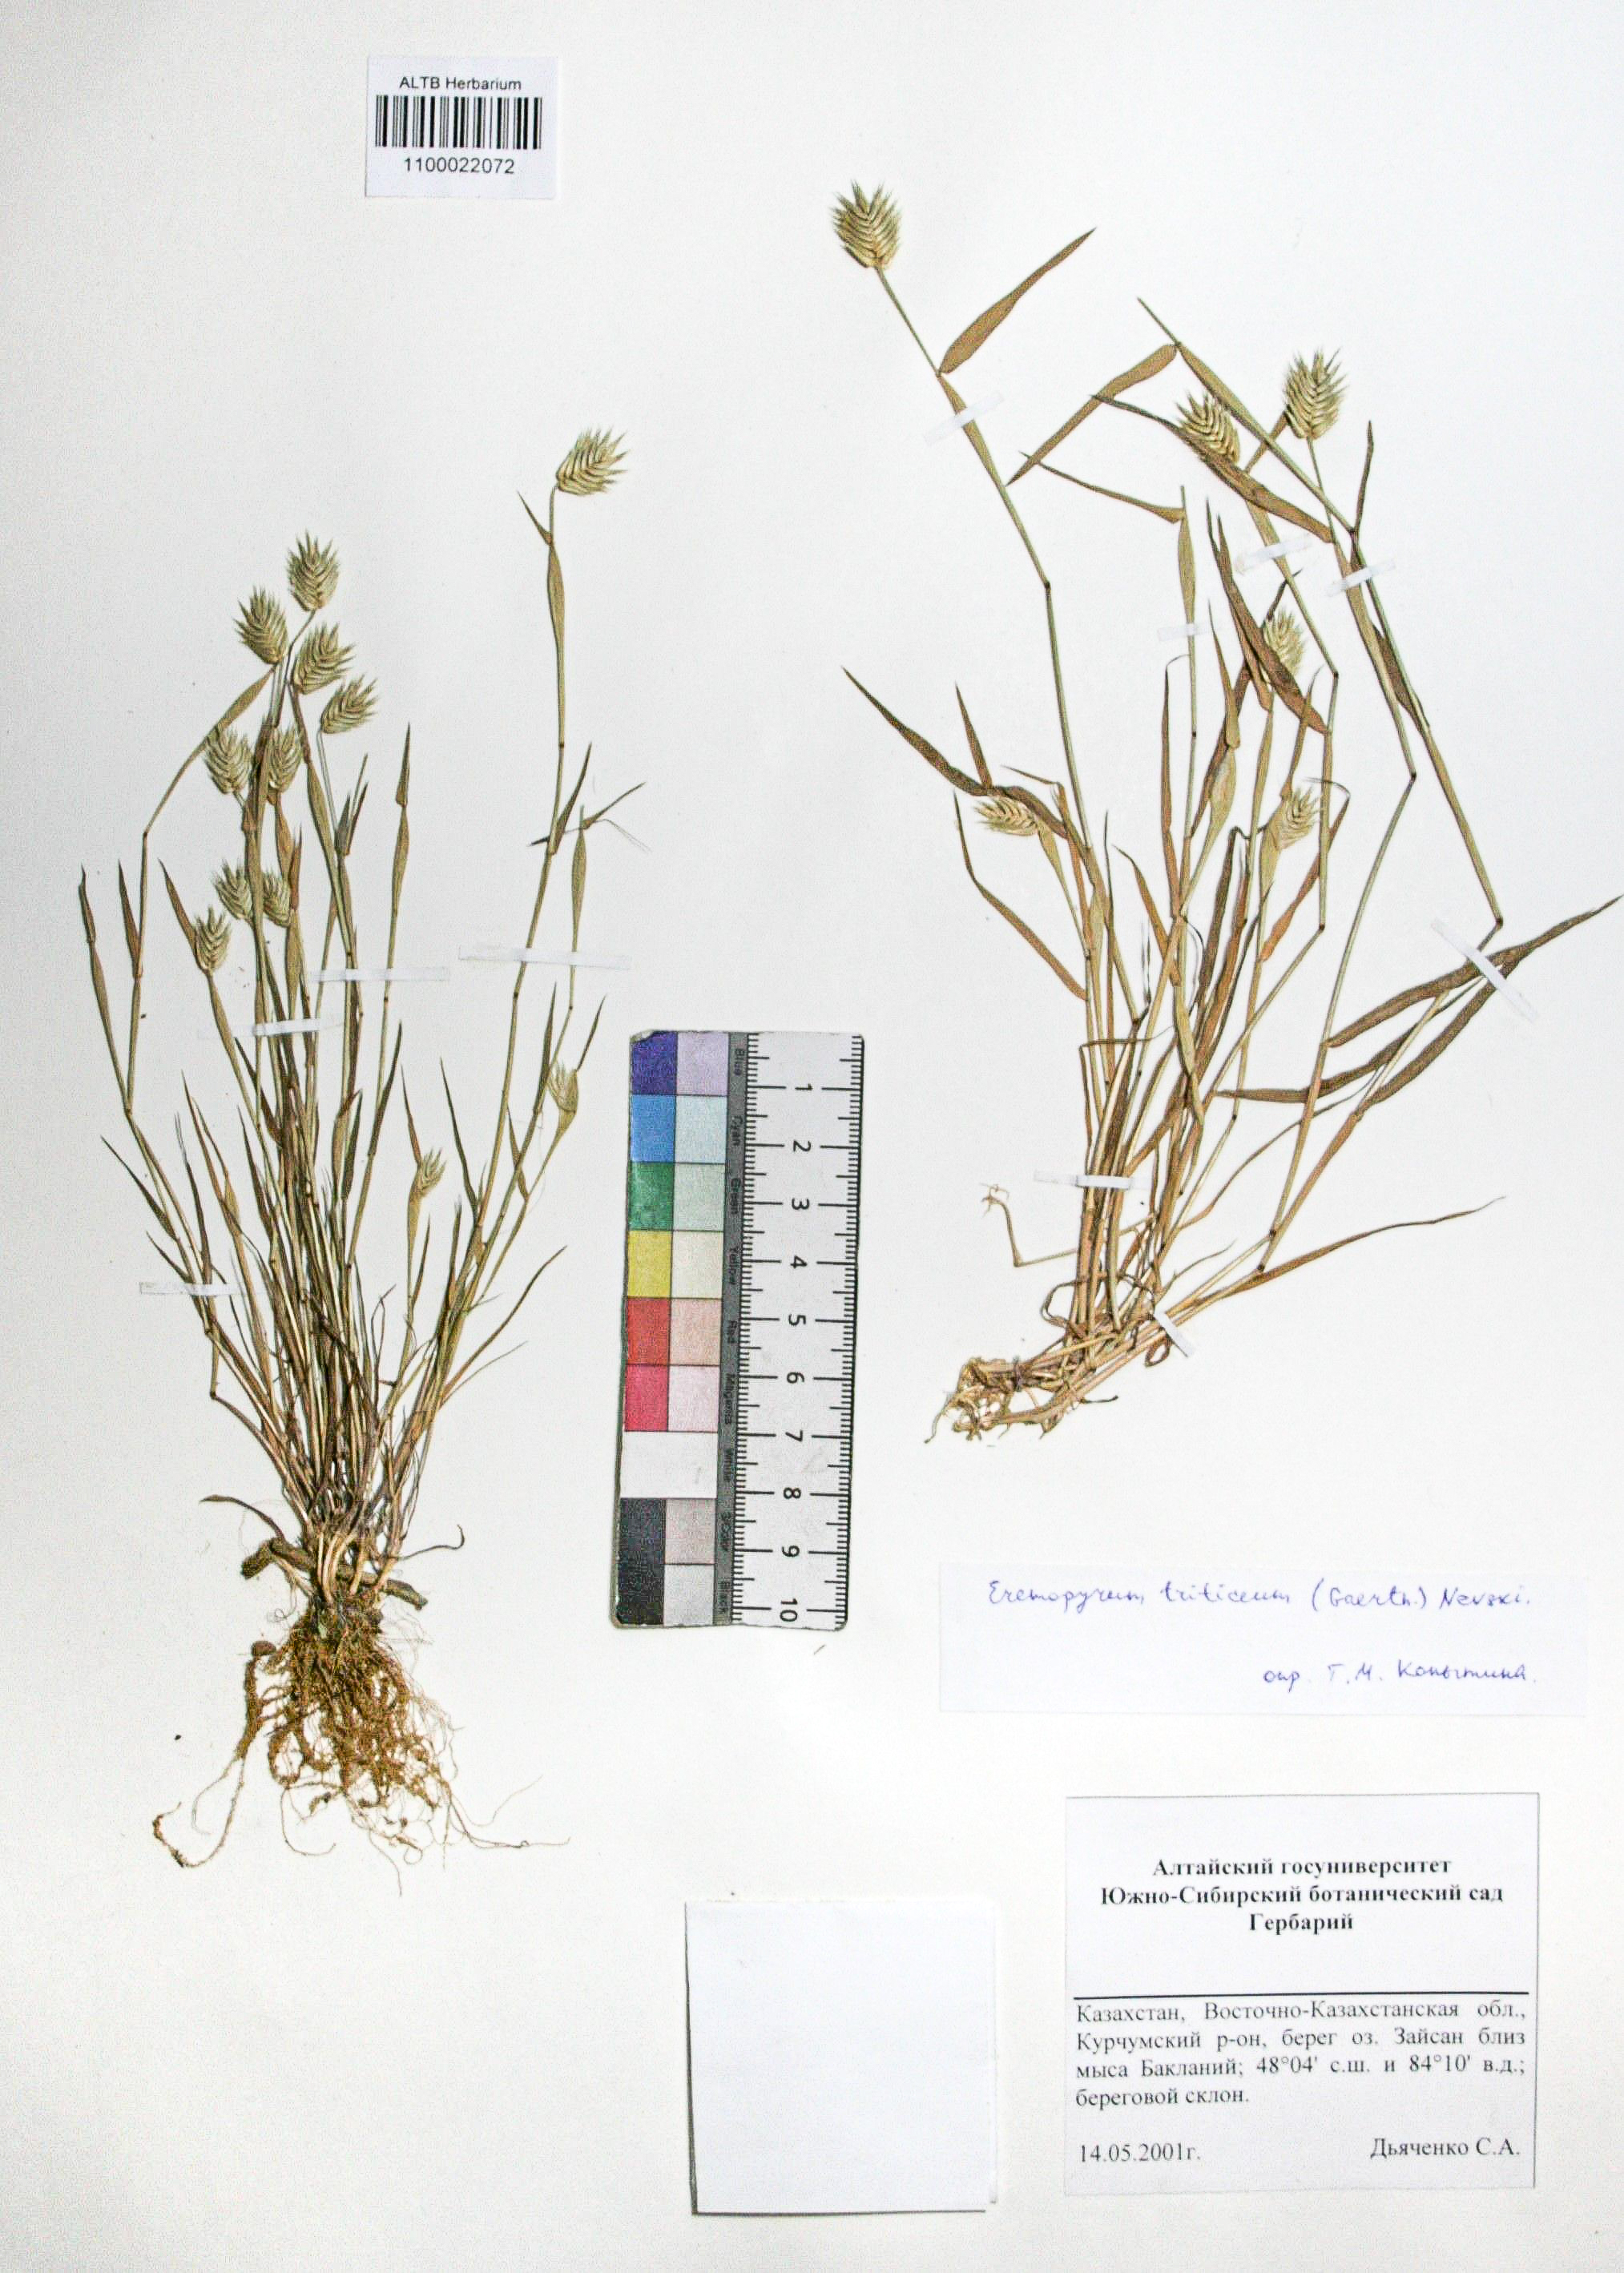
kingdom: Plantae
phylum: Tracheophyta
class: Liliopsida
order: Poales
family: Poaceae
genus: Eremopyrum
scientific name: Eremopyrum triticeum
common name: Annual wheatgrass
